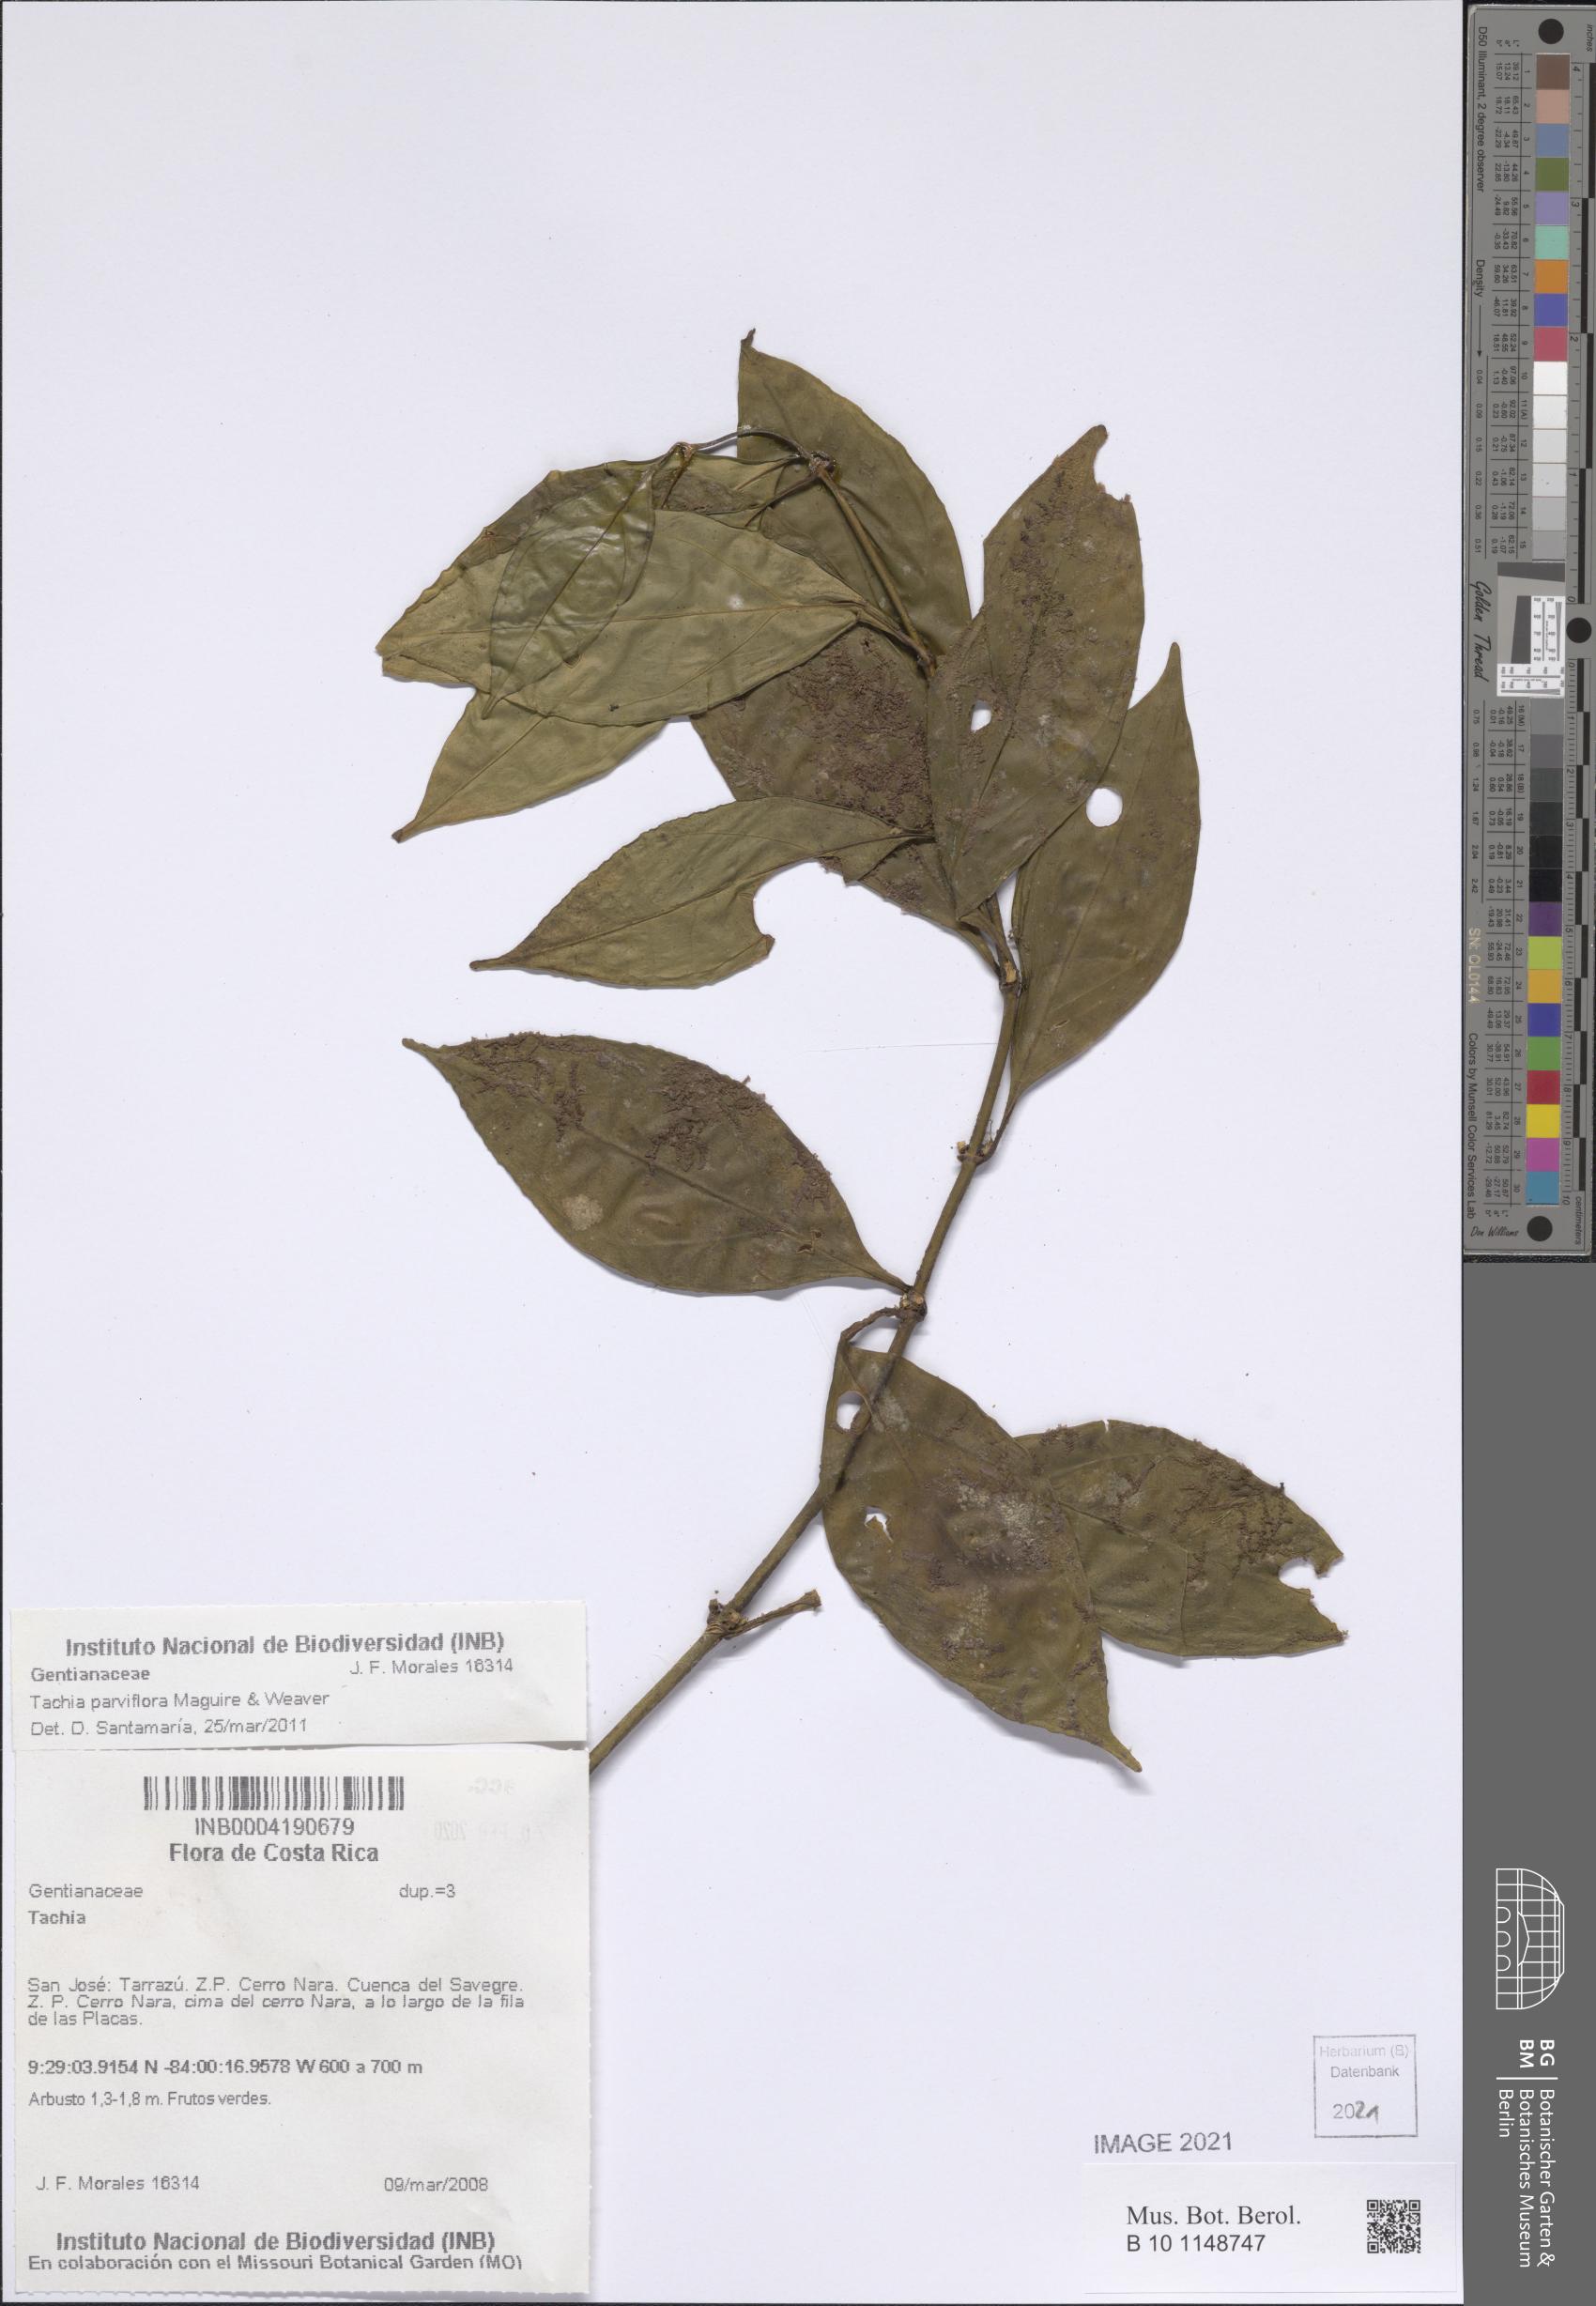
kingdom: Plantae
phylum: Tracheophyta
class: Magnoliopsida
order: Gentianales
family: Gentianaceae
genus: Tachia
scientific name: Tachia
